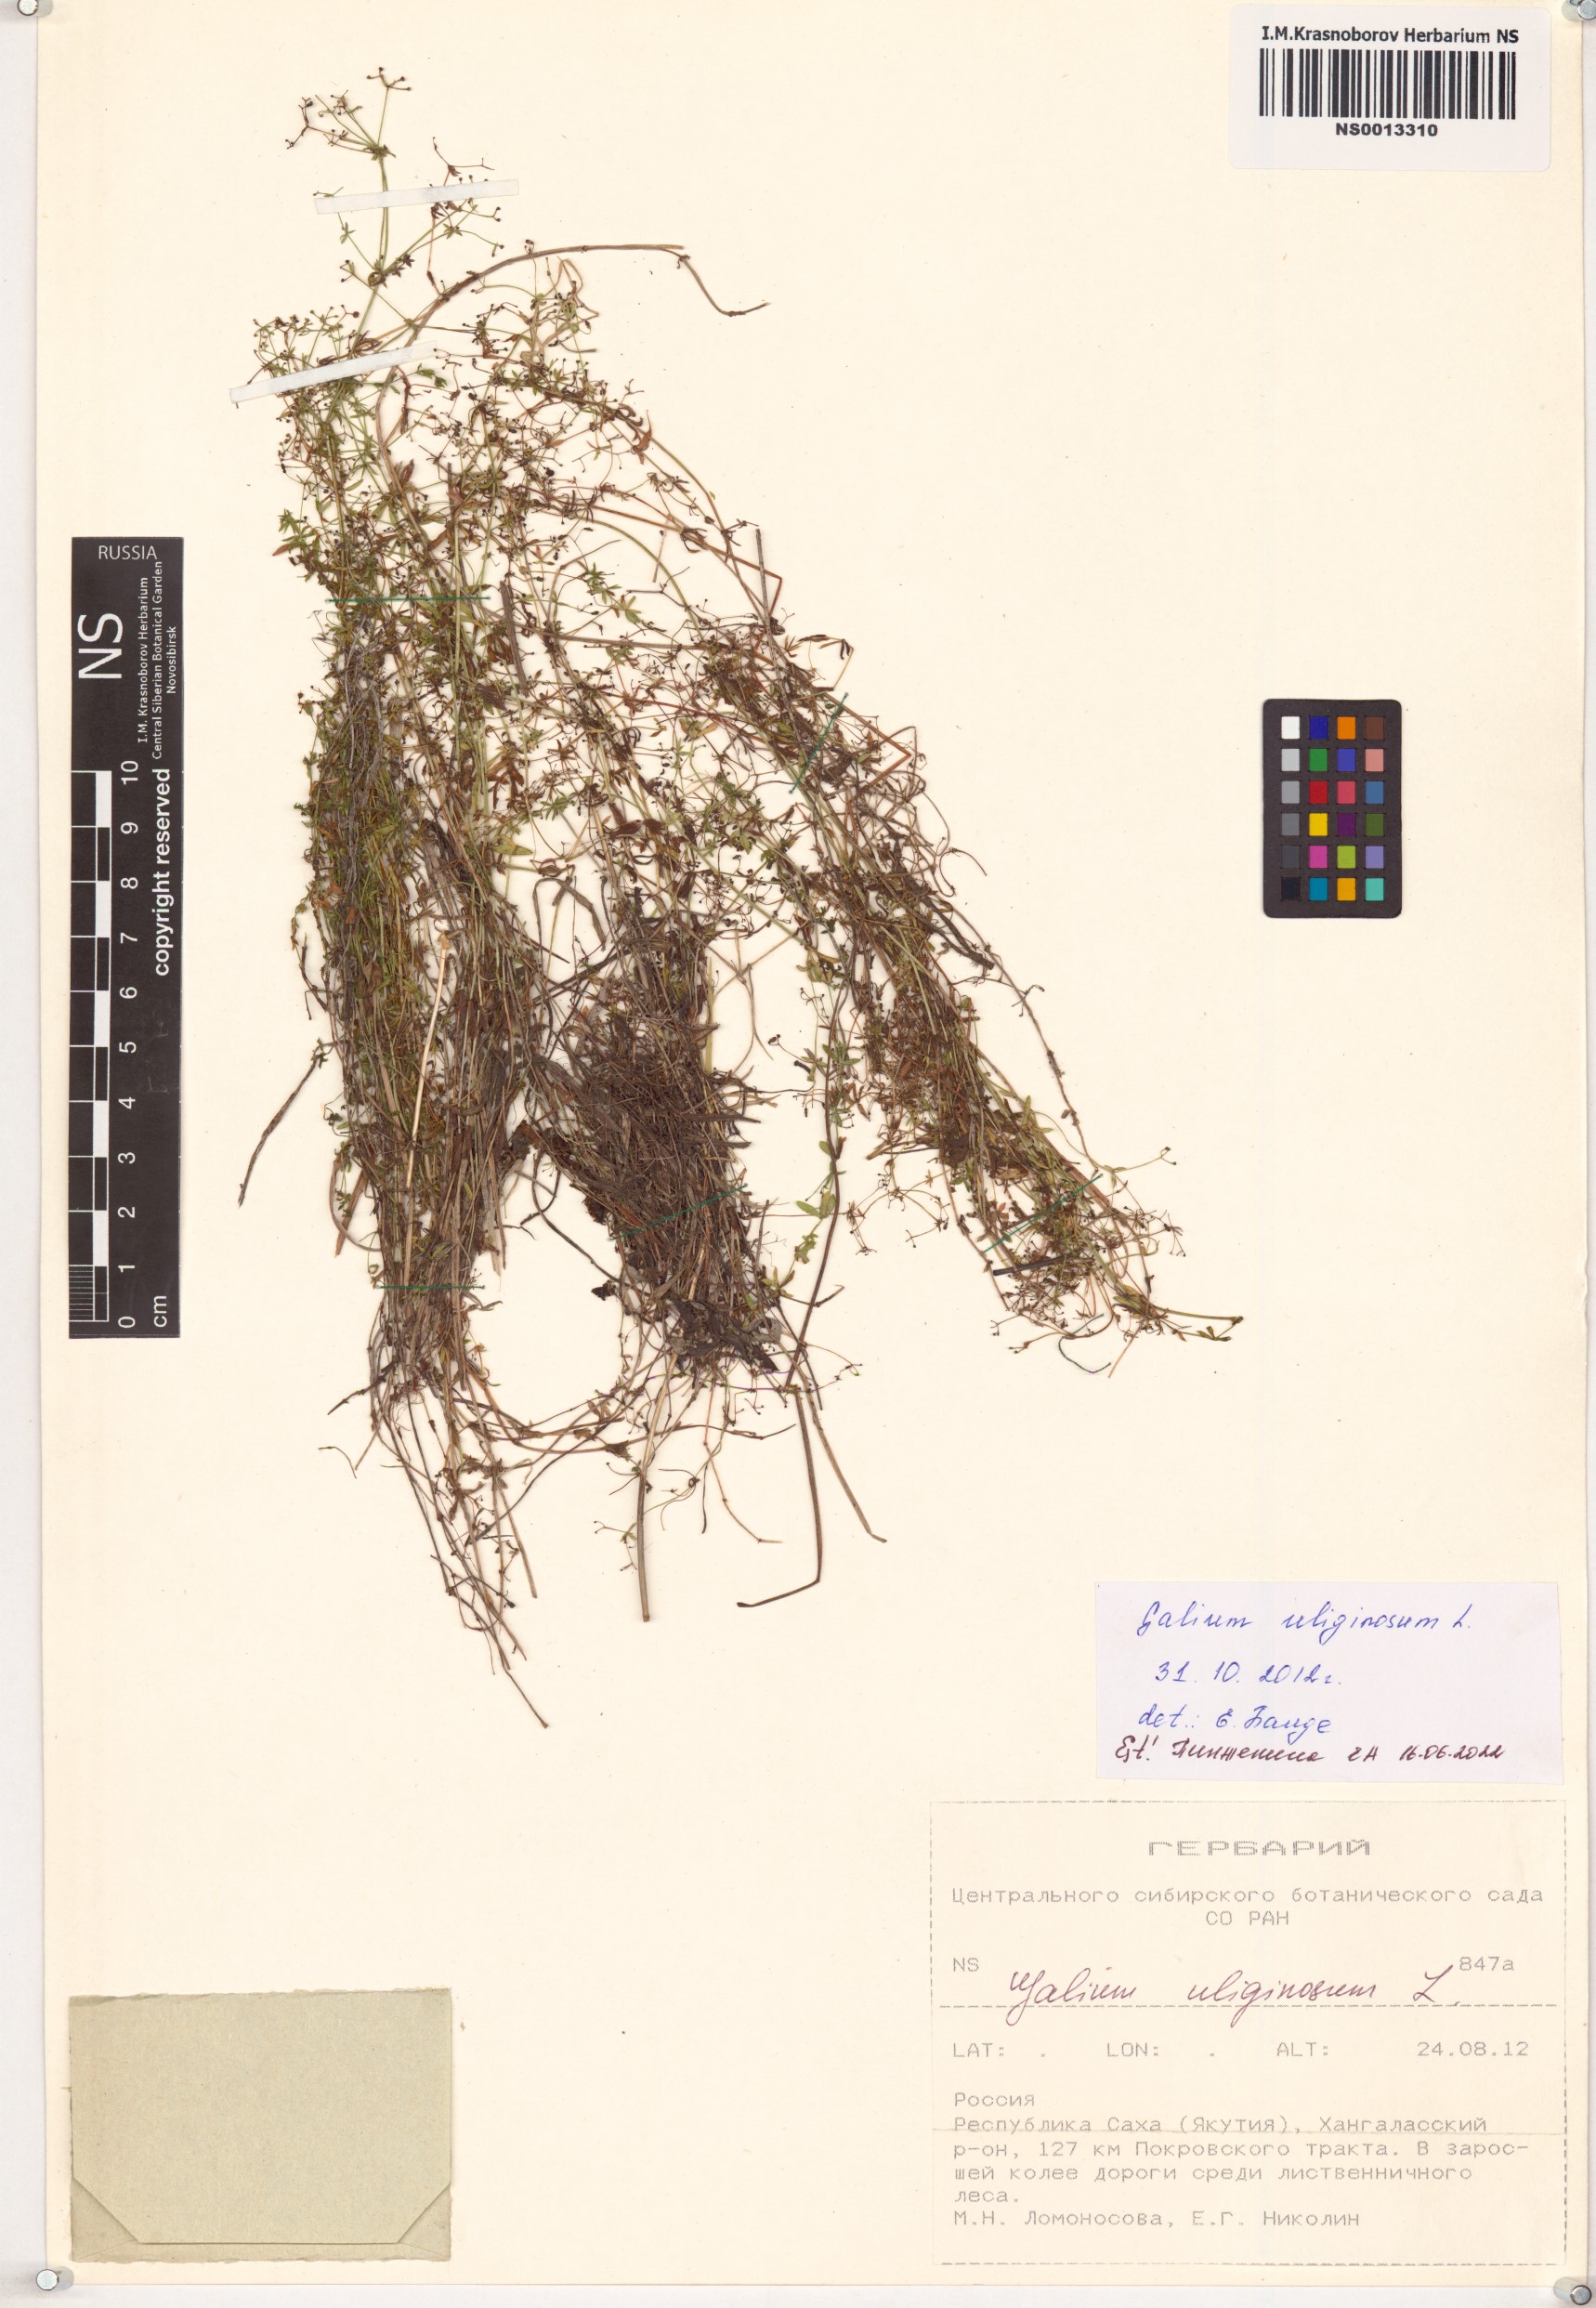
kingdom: Plantae
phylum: Tracheophyta
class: Magnoliopsida
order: Gentianales
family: Rubiaceae
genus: Galium
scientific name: Galium uliginosum
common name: Fen bedstraw
